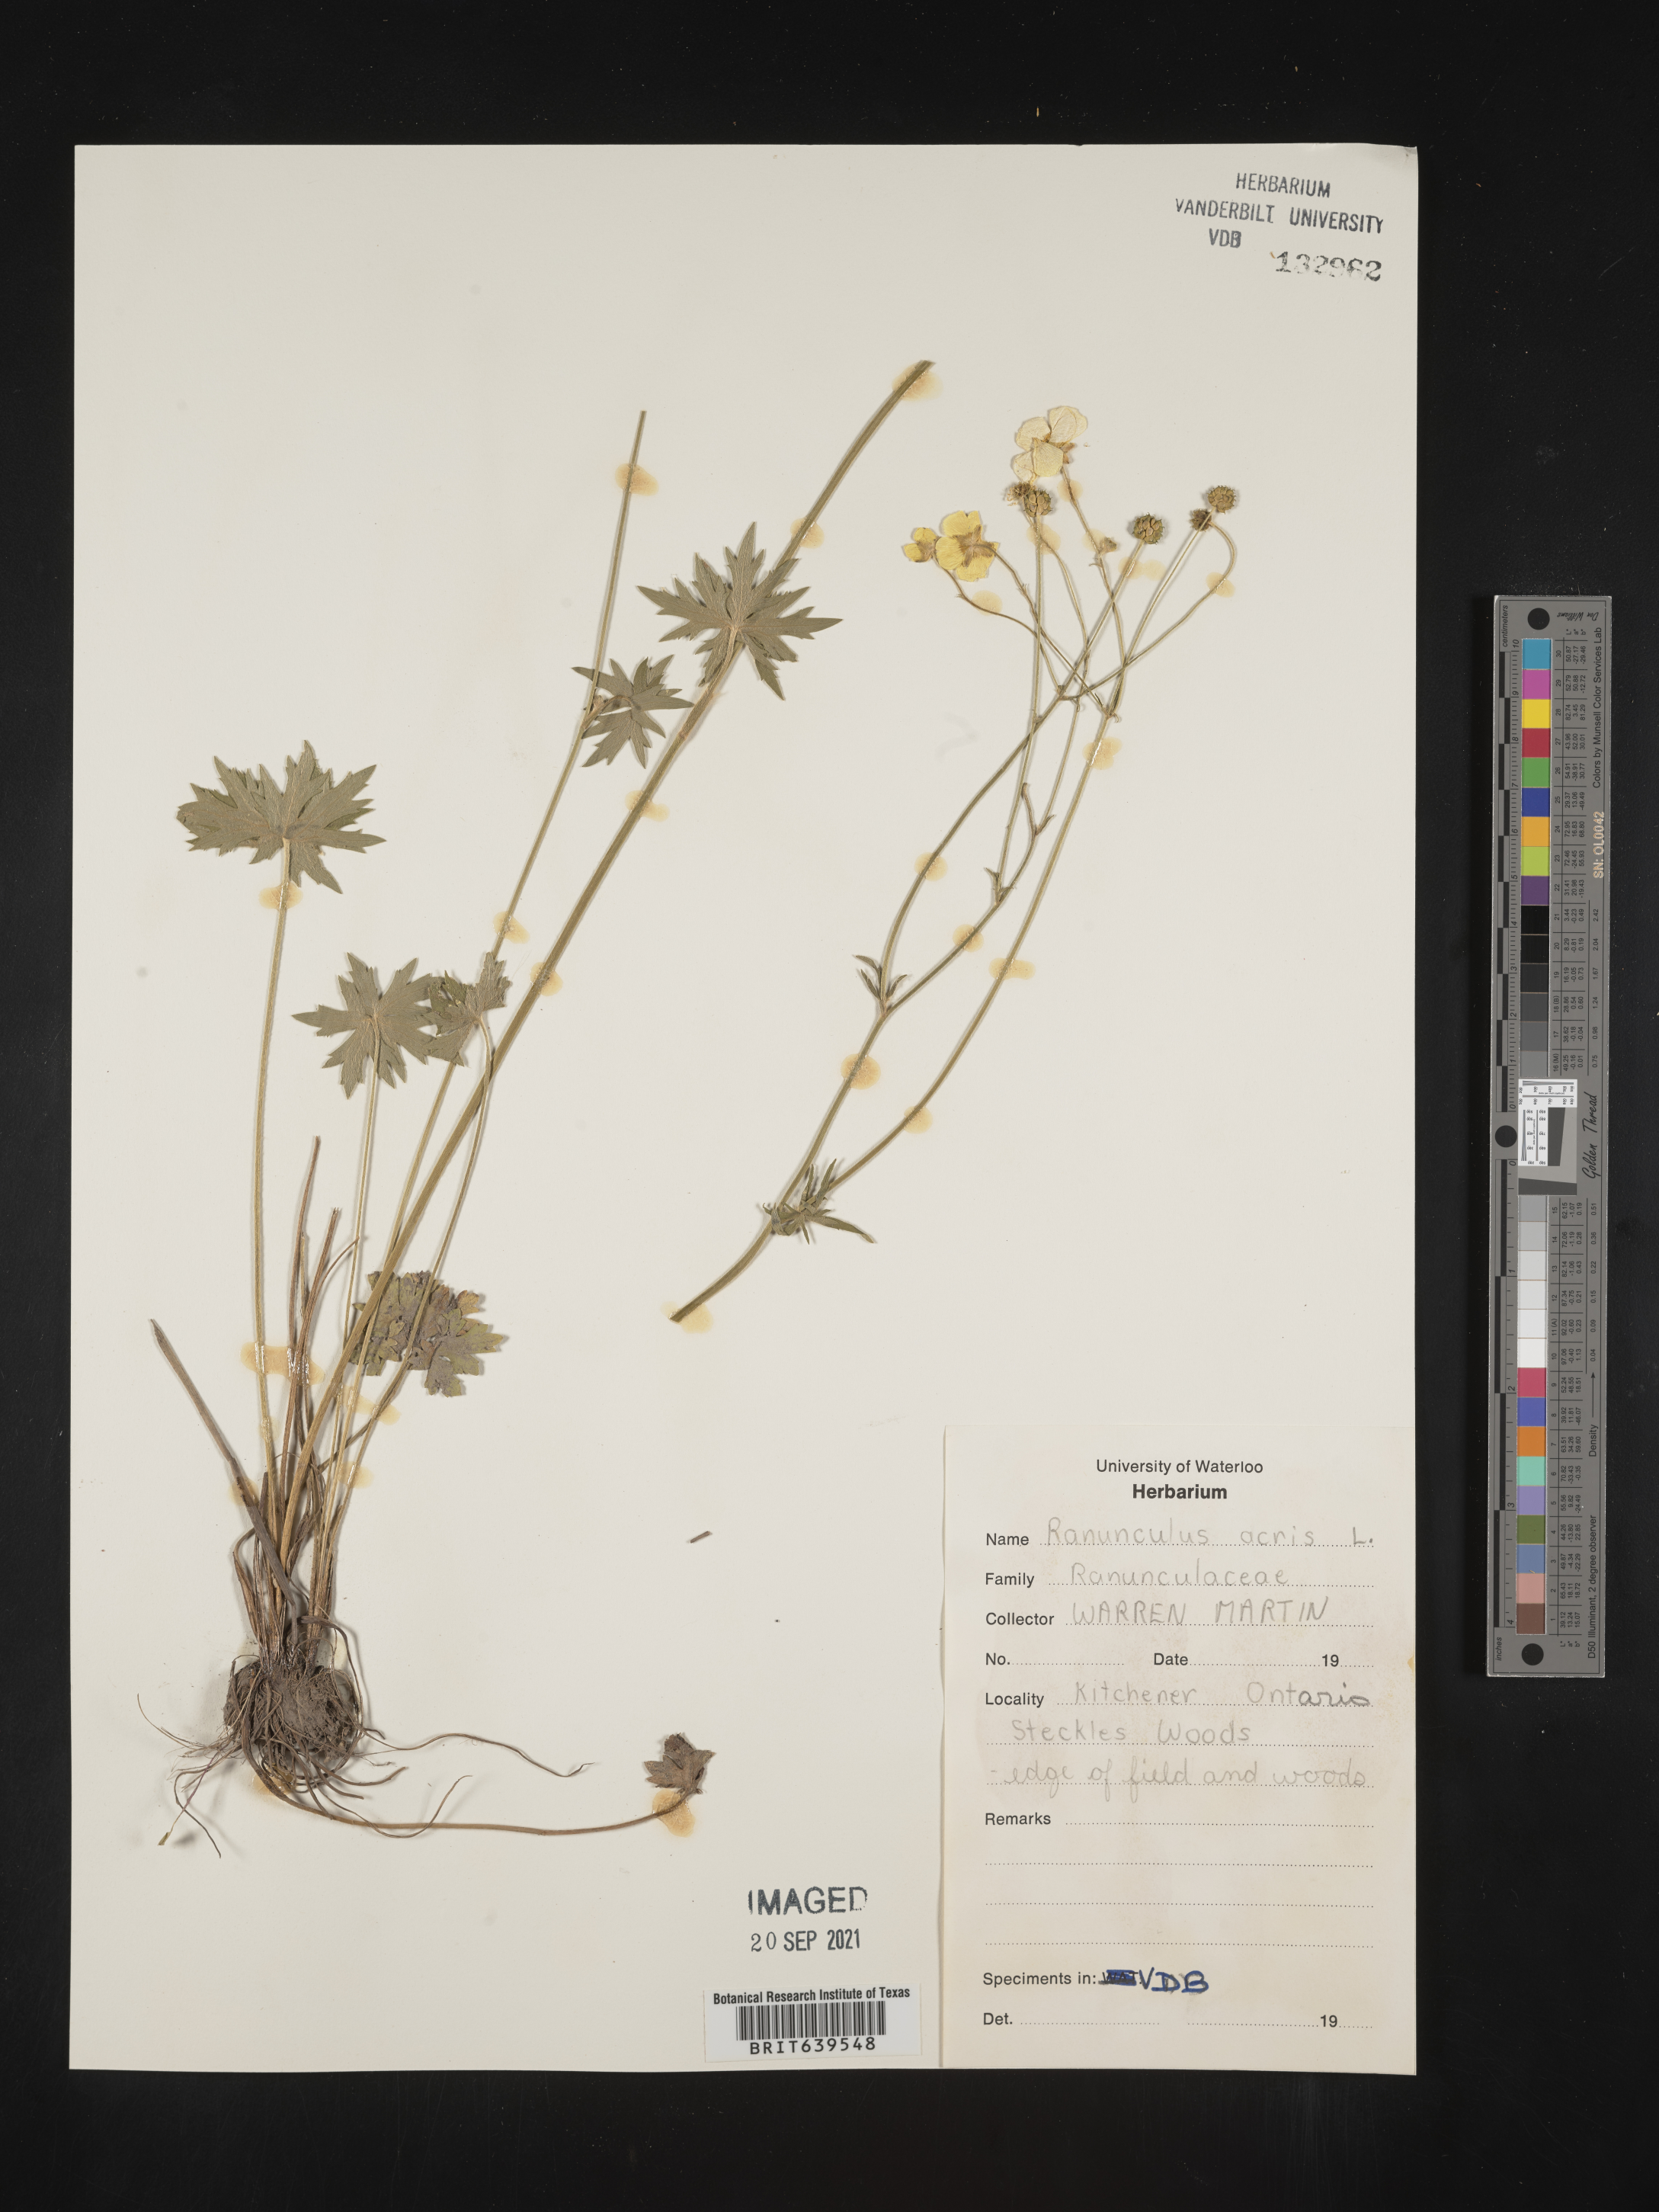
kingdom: Plantae
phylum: Tracheophyta
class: Magnoliopsida
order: Ranunculales
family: Ranunculaceae
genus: Ranunculus
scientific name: Ranunculus
